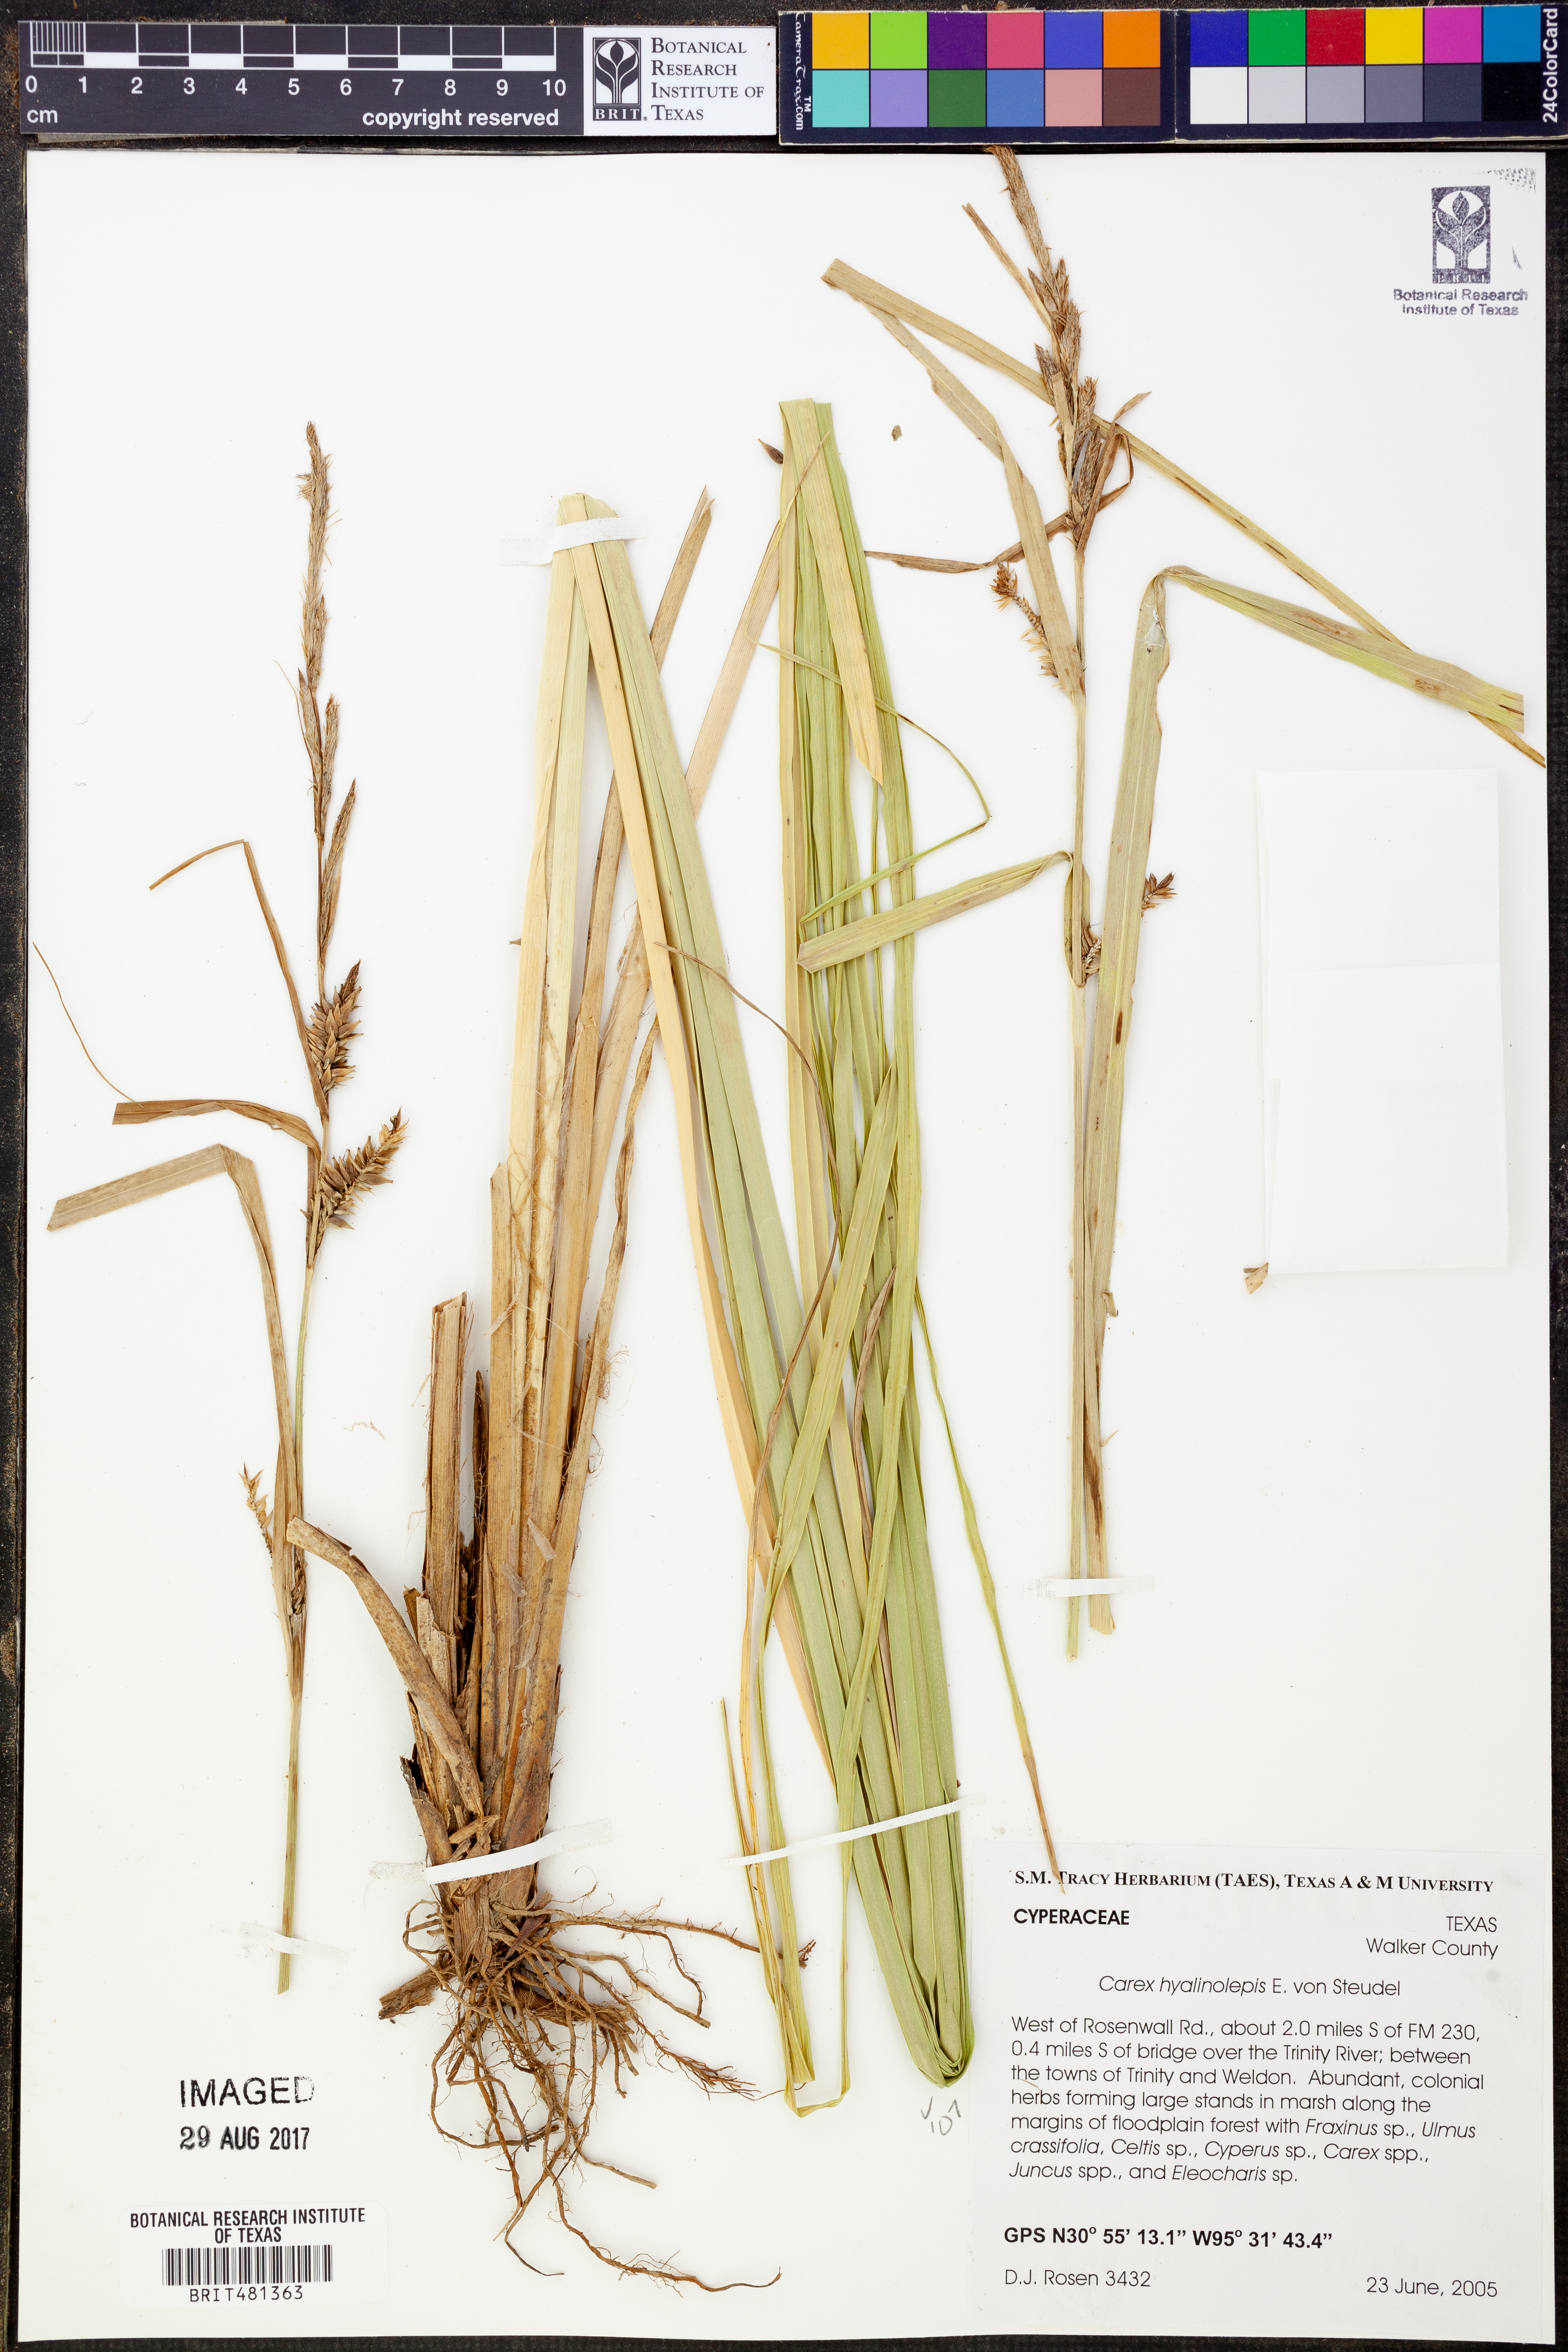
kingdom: Plantae
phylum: Tracheophyta
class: Liliopsida
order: Poales
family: Cyperaceae
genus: Carex
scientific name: Carex hyalinolepis
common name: Shoreline sedge
